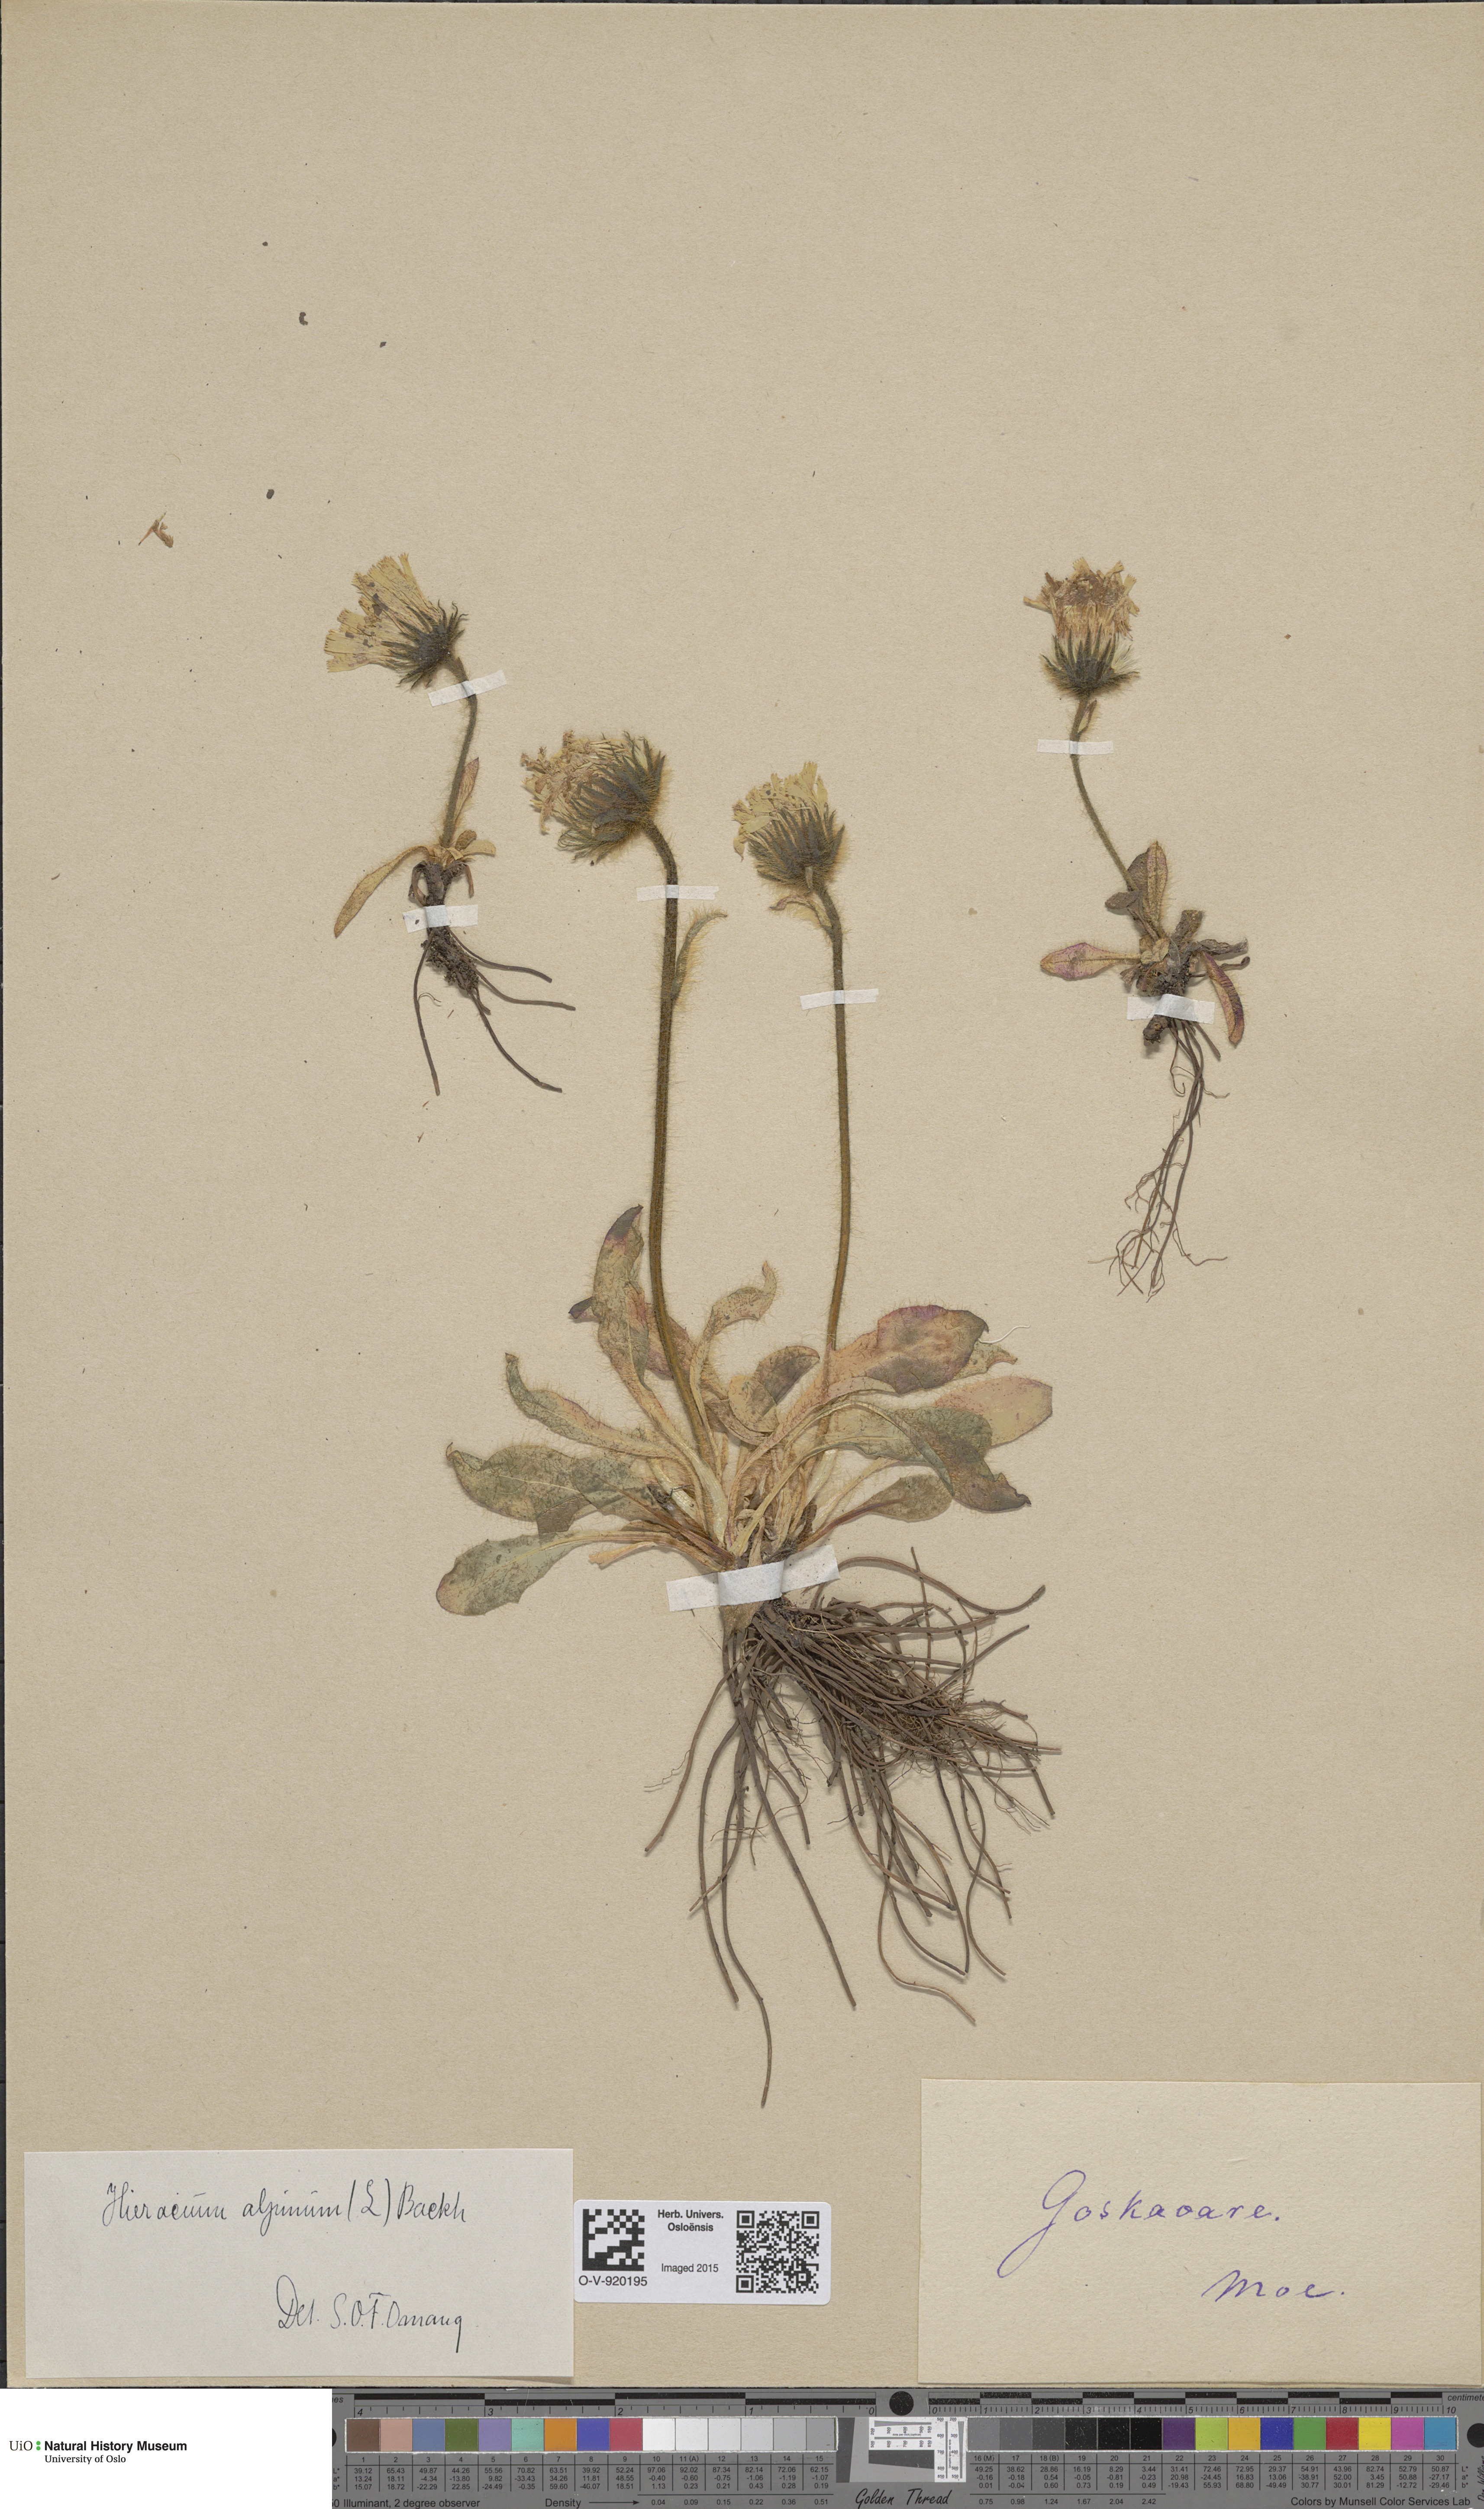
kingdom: Plantae
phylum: Tracheophyta
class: Magnoliopsida
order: Asterales
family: Asteraceae
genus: Hieracium
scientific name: Hieracium alpinum
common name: Alpine hawkweed
